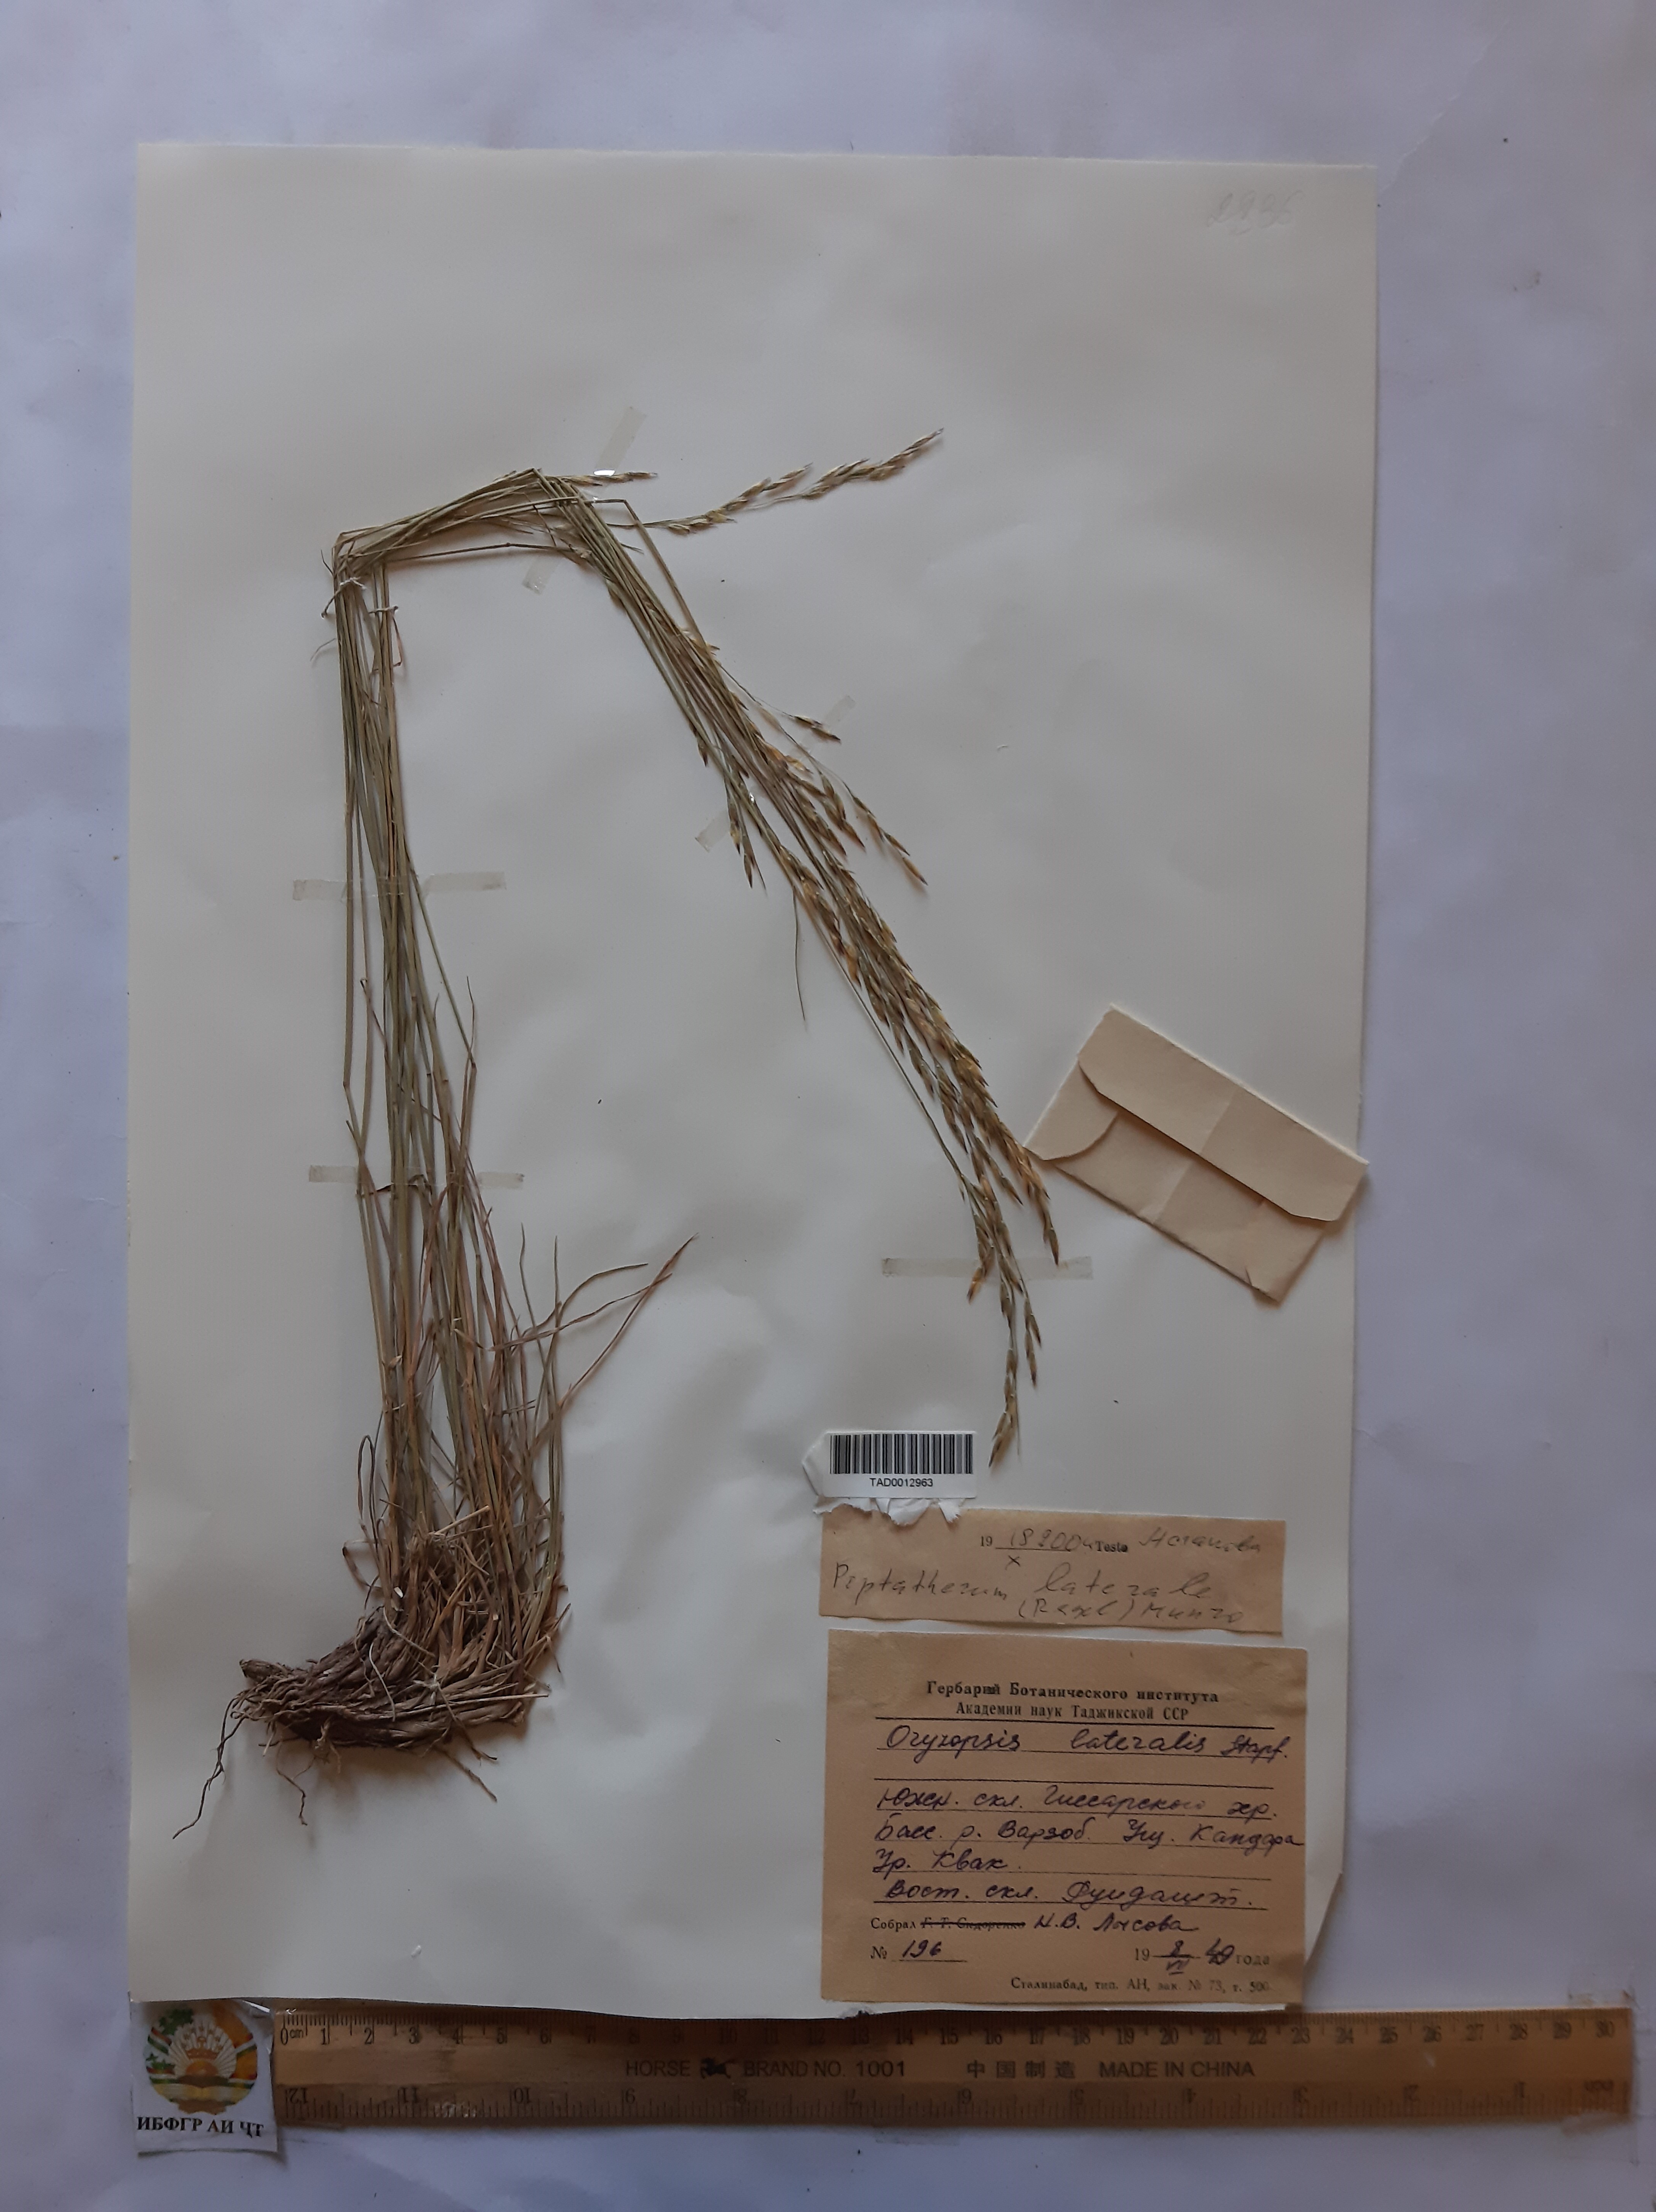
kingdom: Plantae
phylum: Tracheophyta
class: Liliopsida
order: Poales
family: Poaceae
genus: Piptatherum
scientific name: Piptatherum laterale
